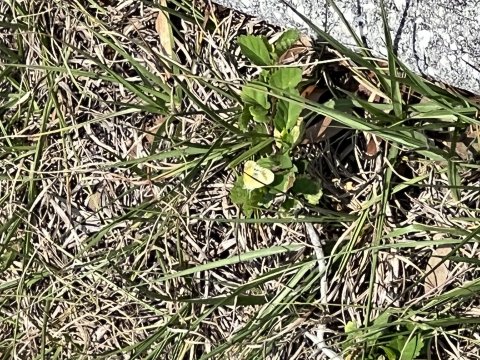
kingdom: Animalia
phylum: Arthropoda
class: Insecta
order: Lepidoptera
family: Pieridae
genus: Nathalis
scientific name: Nathalis iole
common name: Dainty Sulphur
